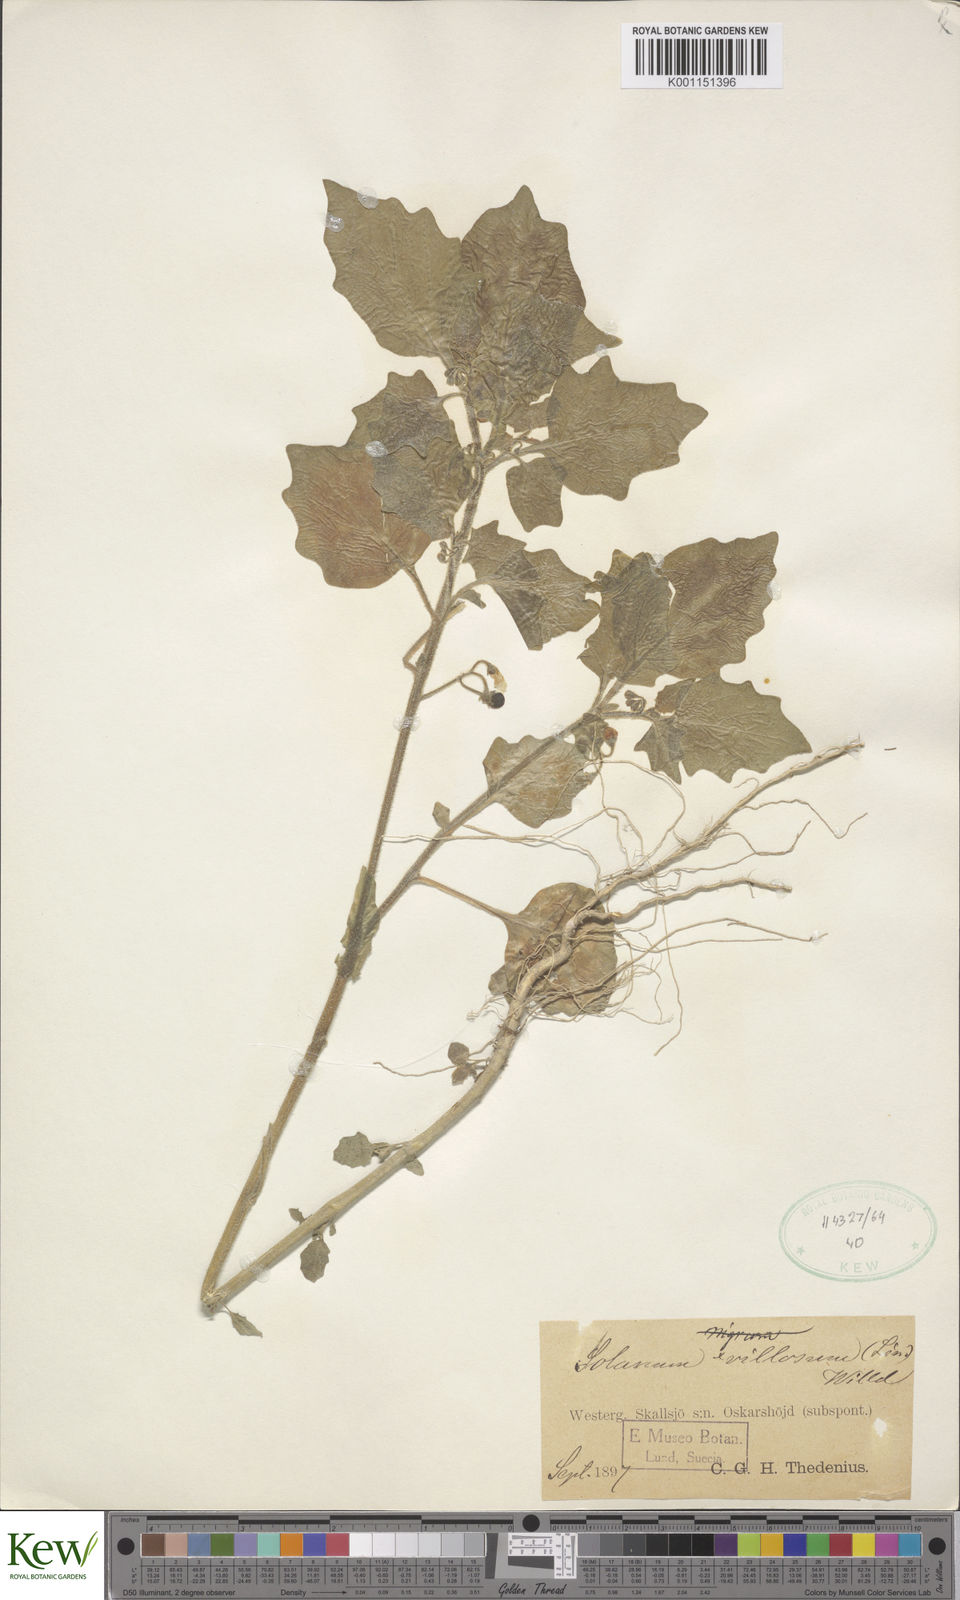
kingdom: Plantae
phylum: Tracheophyta
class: Magnoliopsida
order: Solanales
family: Solanaceae
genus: Solanum
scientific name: Solanum villosum
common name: Red nightshade
